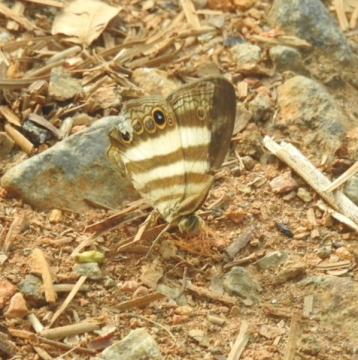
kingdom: Animalia
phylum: Arthropoda
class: Insecta
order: Lepidoptera
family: Nymphalidae
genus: Pareuptychia
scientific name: Pareuptychia hesione
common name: White Satyr
